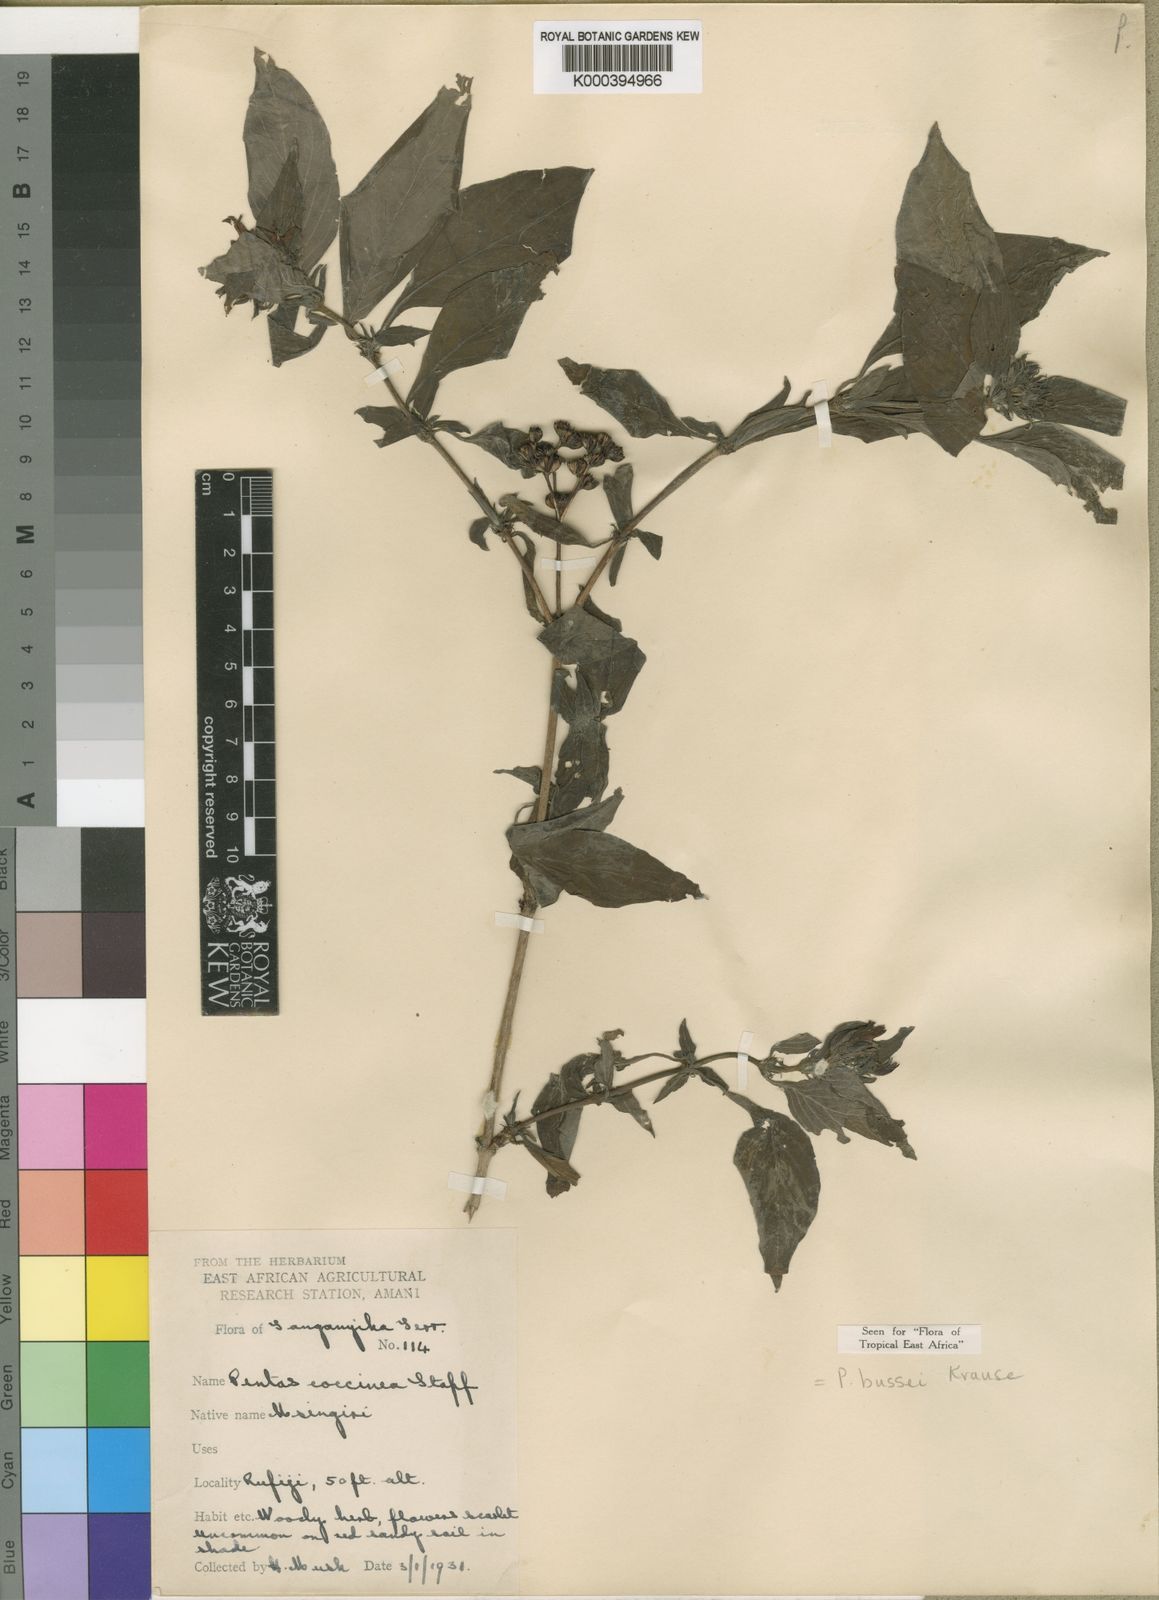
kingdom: Plantae
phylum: Tracheophyta
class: Magnoliopsida
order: Gentianales
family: Rubiaceae
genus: Rhodopentas
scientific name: Rhodopentas
